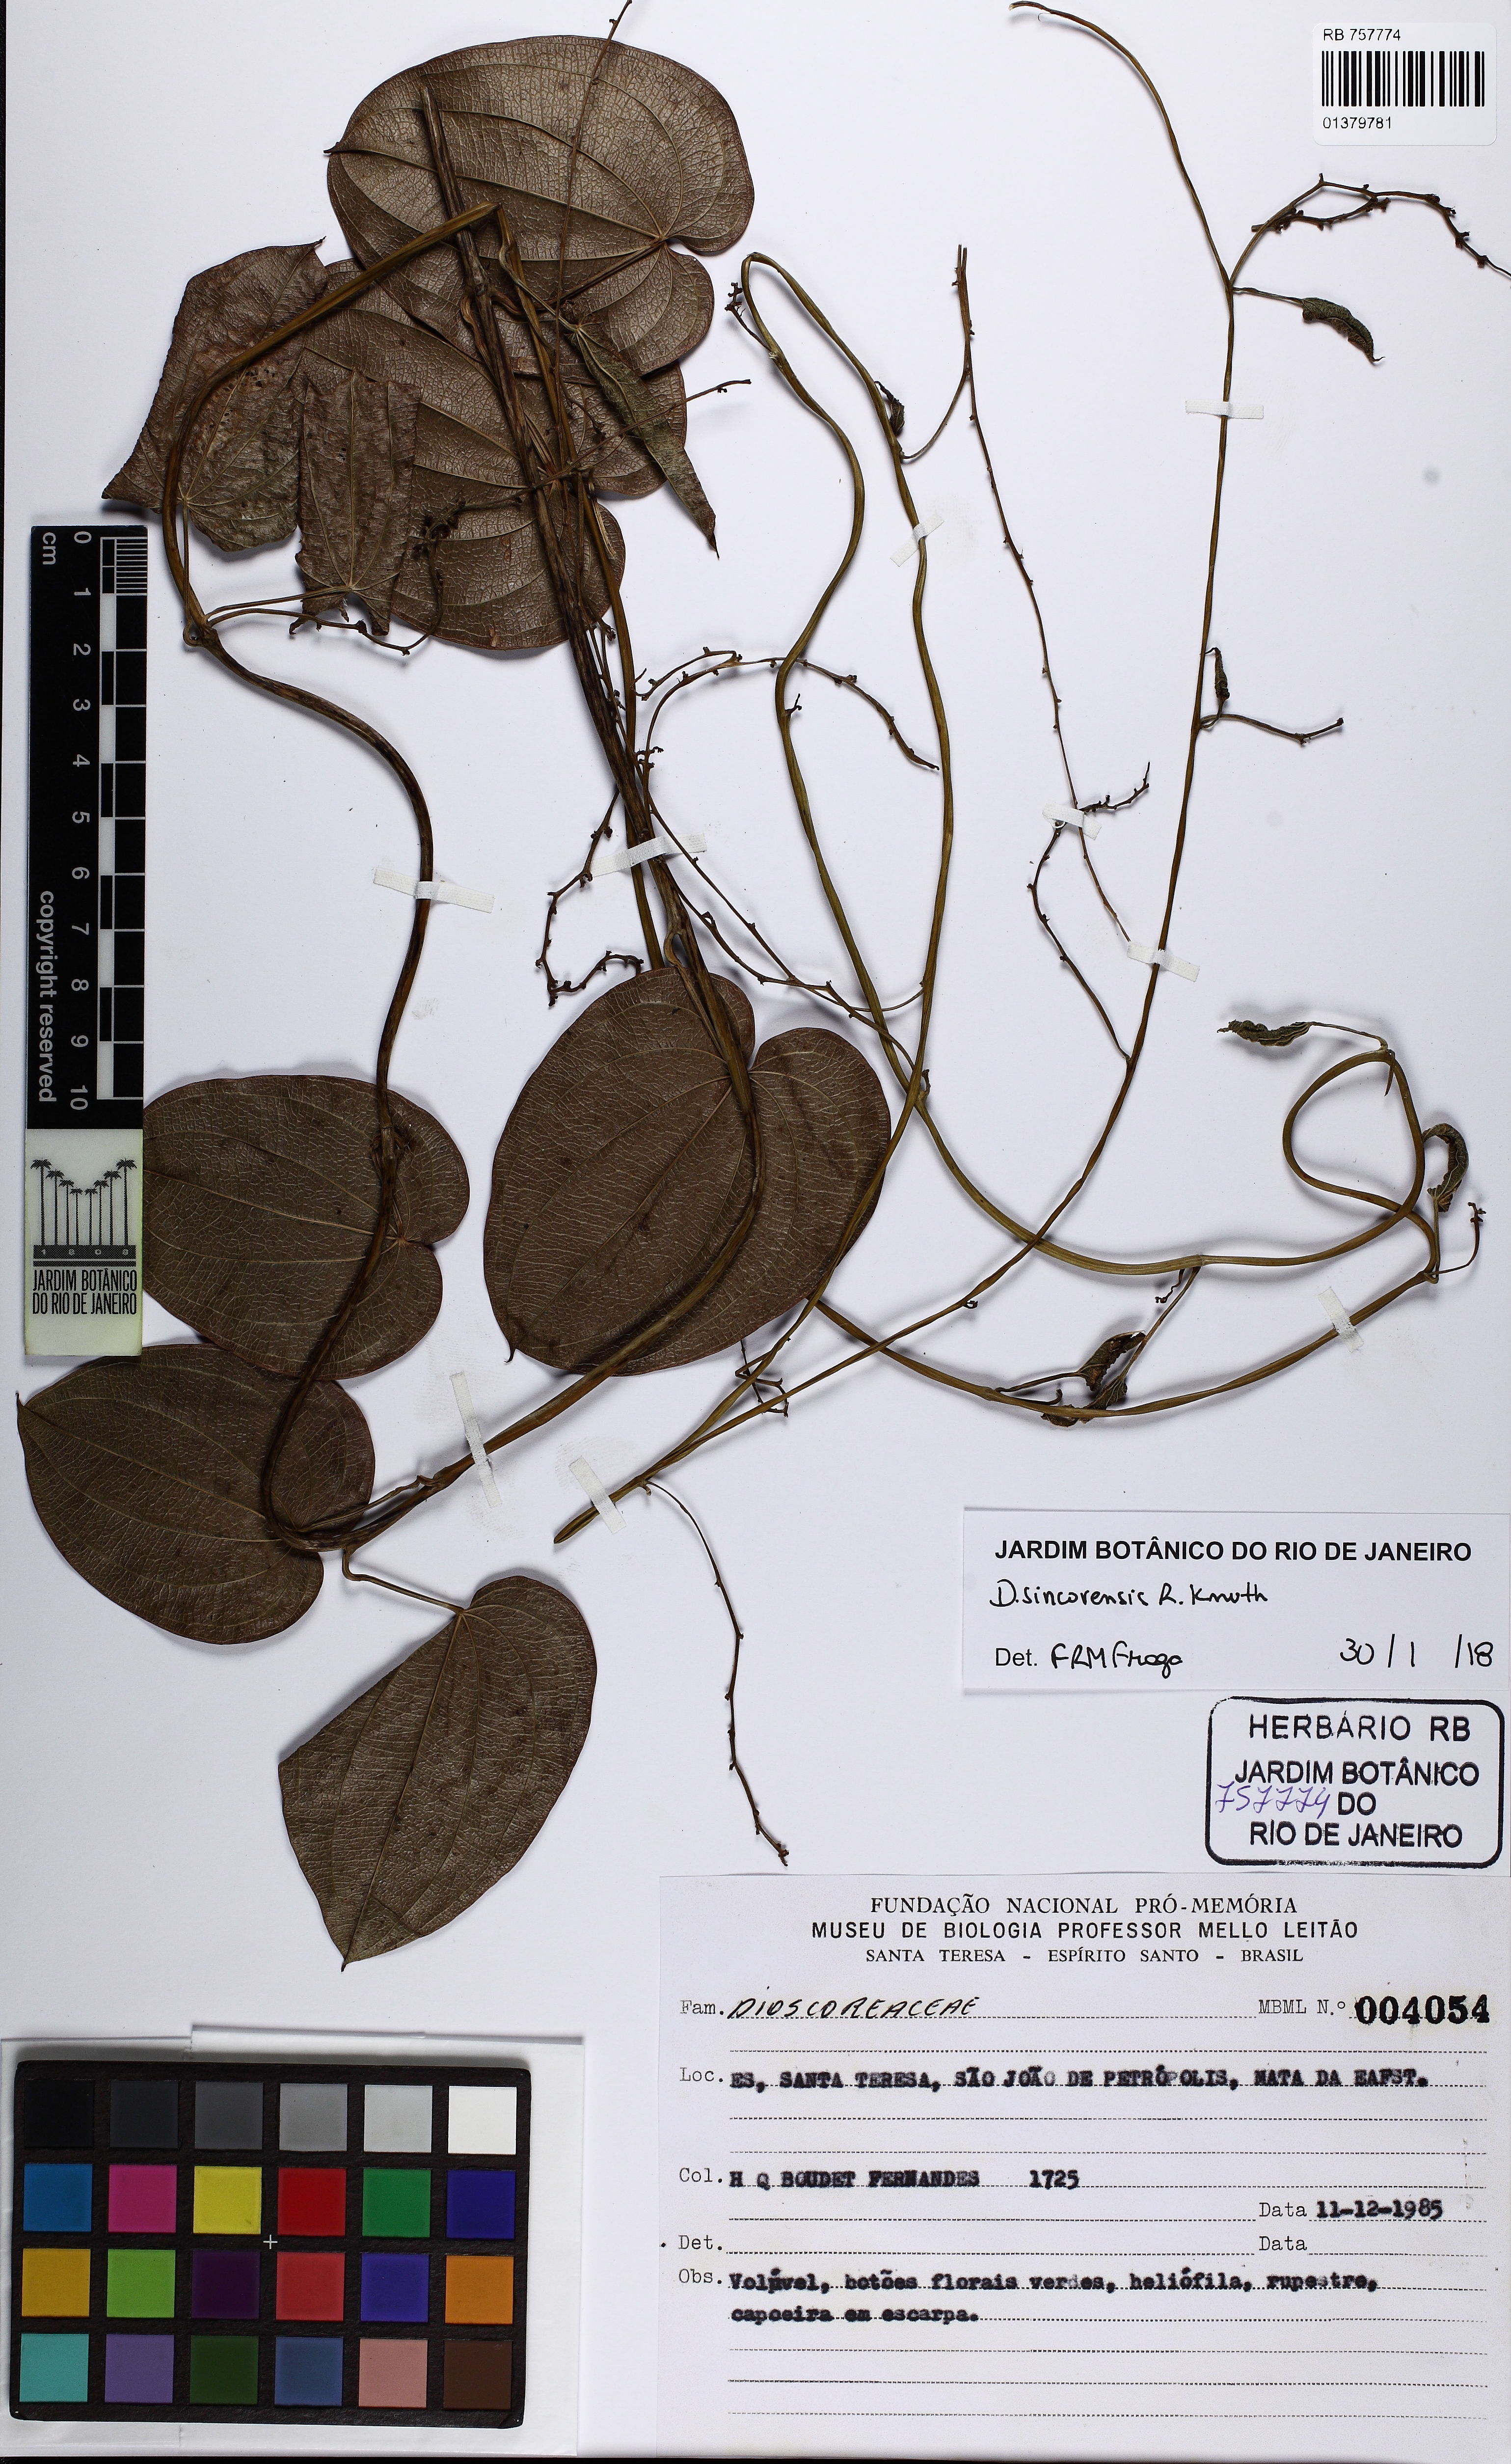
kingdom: Plantae
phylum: Tracheophyta
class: Liliopsida
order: Dioscoreales
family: Dioscoreaceae
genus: Dioscorea
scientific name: Dioscorea sincorensis
